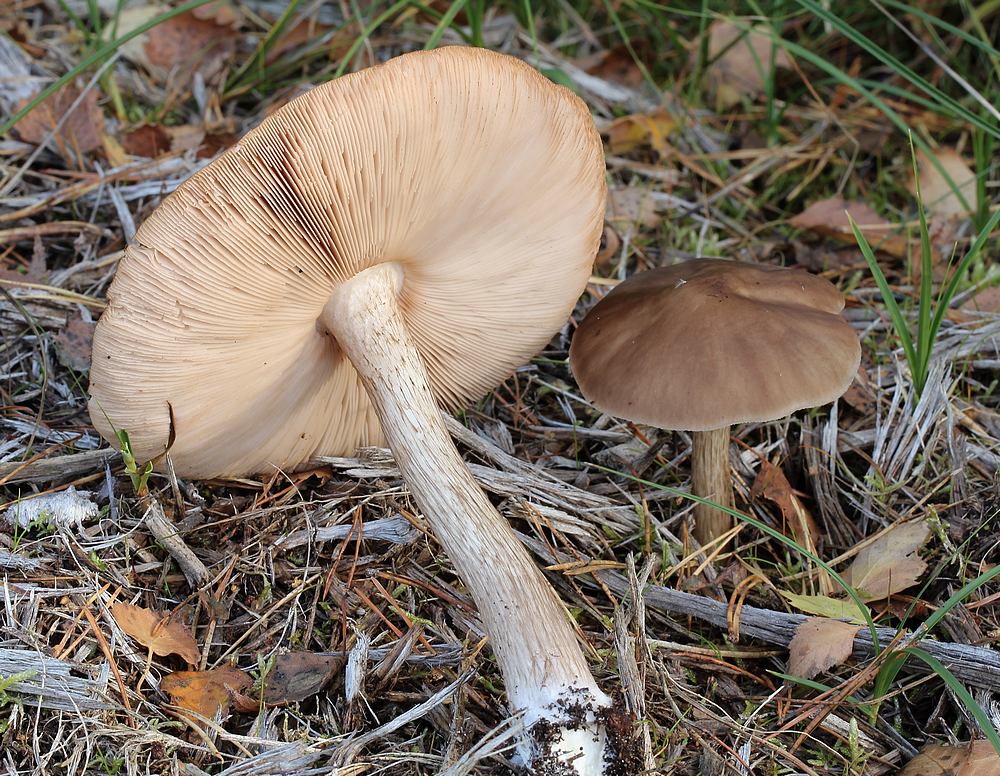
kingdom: Fungi
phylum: Basidiomycota
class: Agaricomycetes
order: Agaricales
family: Pluteaceae
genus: Pluteus
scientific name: Pluteus cervinus
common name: sodfarvet skærmhat
